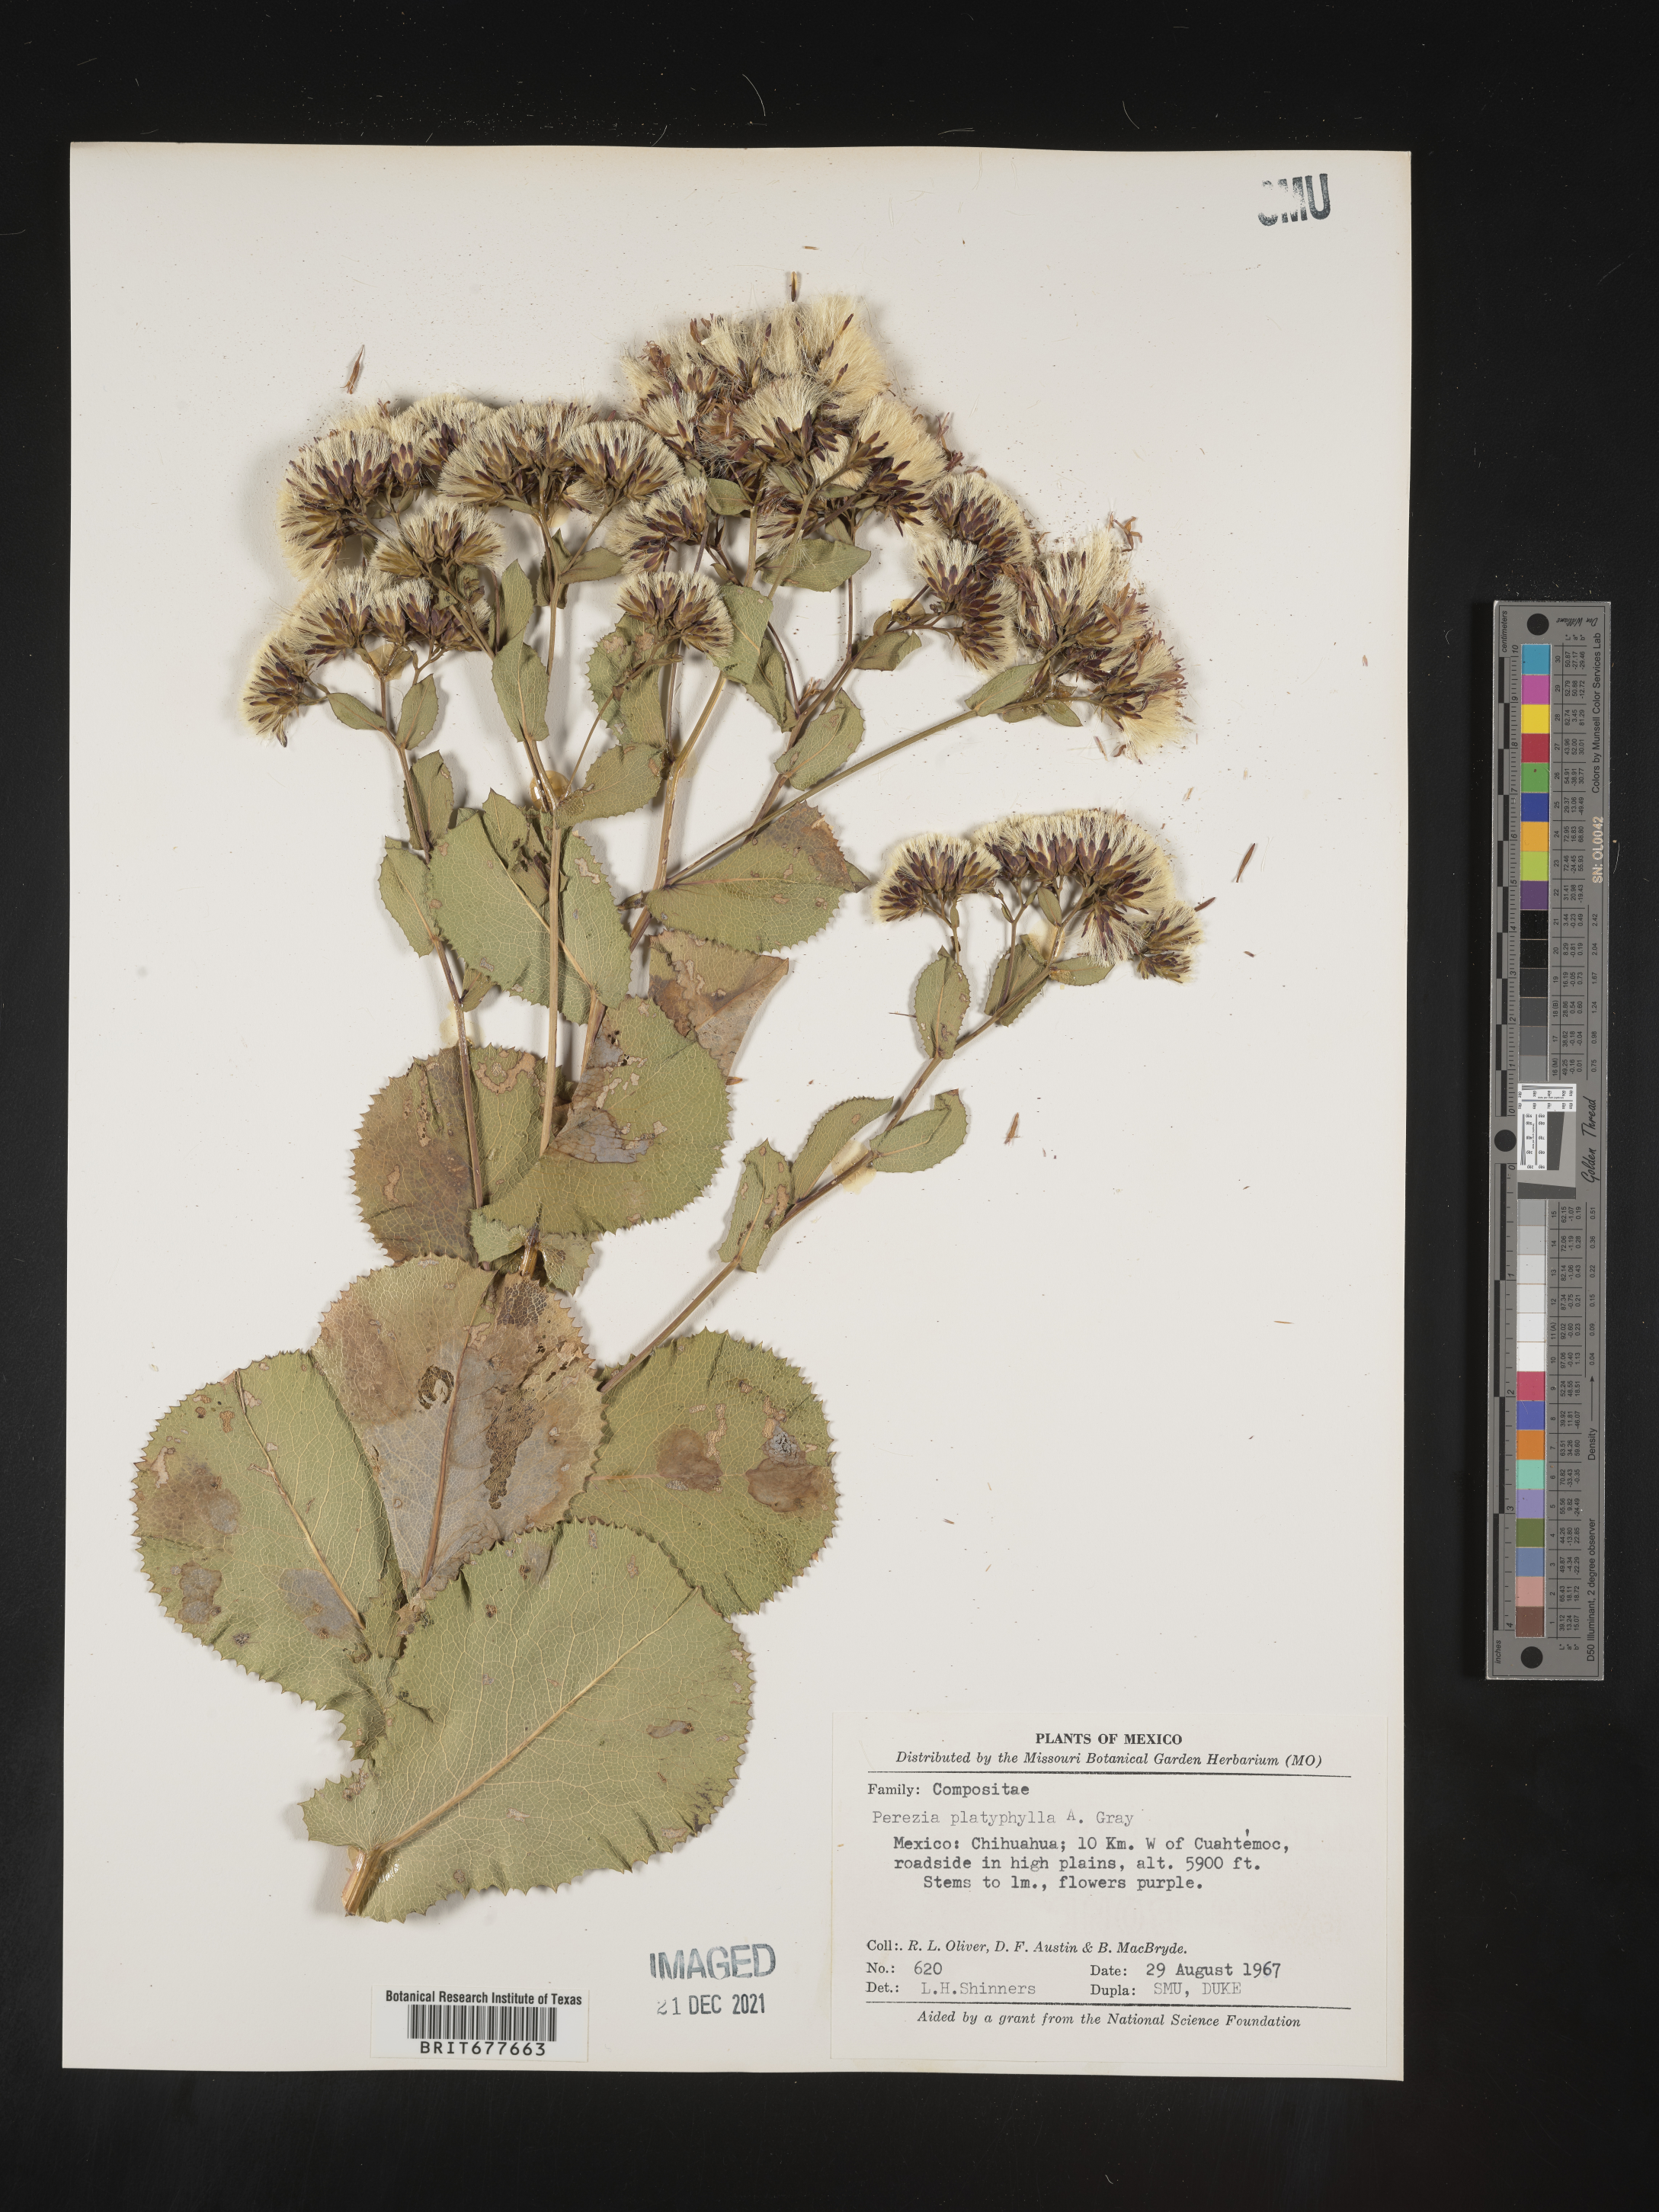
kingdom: Plantae
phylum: Tracheophyta
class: Magnoliopsida
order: Asterales
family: Asteraceae
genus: Perezia
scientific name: Perezia
